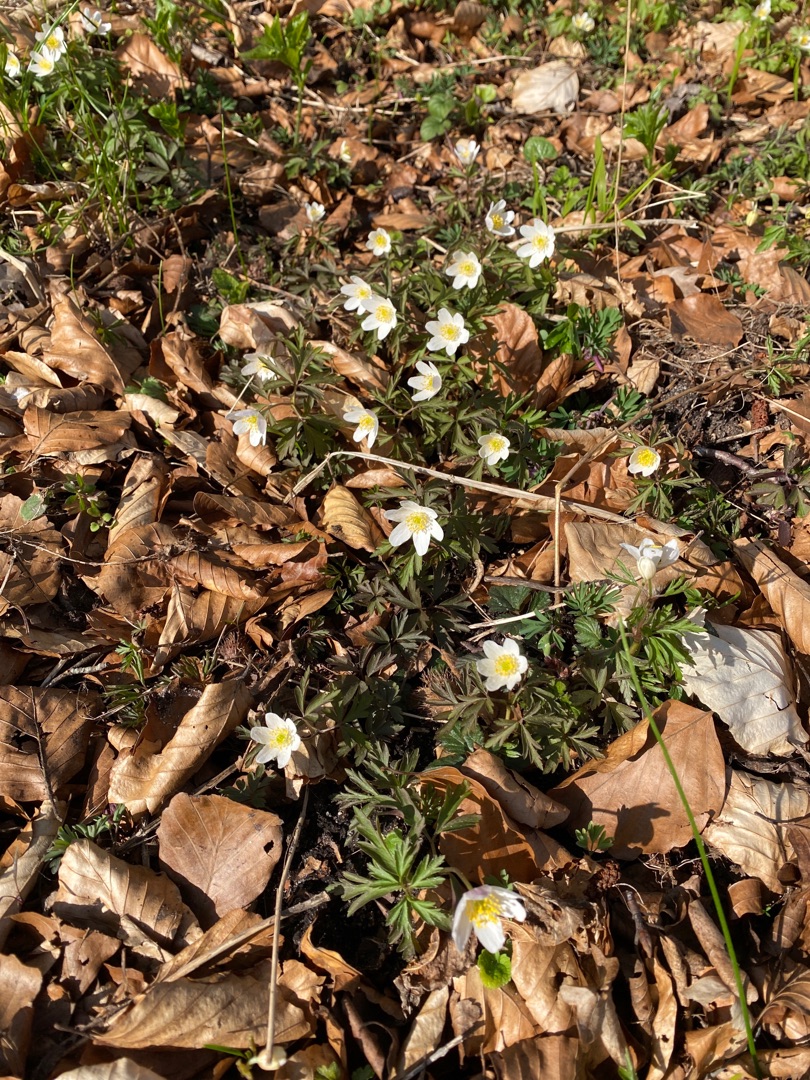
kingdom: Plantae
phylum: Tracheophyta
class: Magnoliopsida
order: Ranunculales
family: Ranunculaceae
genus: Anemone
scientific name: Anemone nemorosa
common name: Hvid anemone
